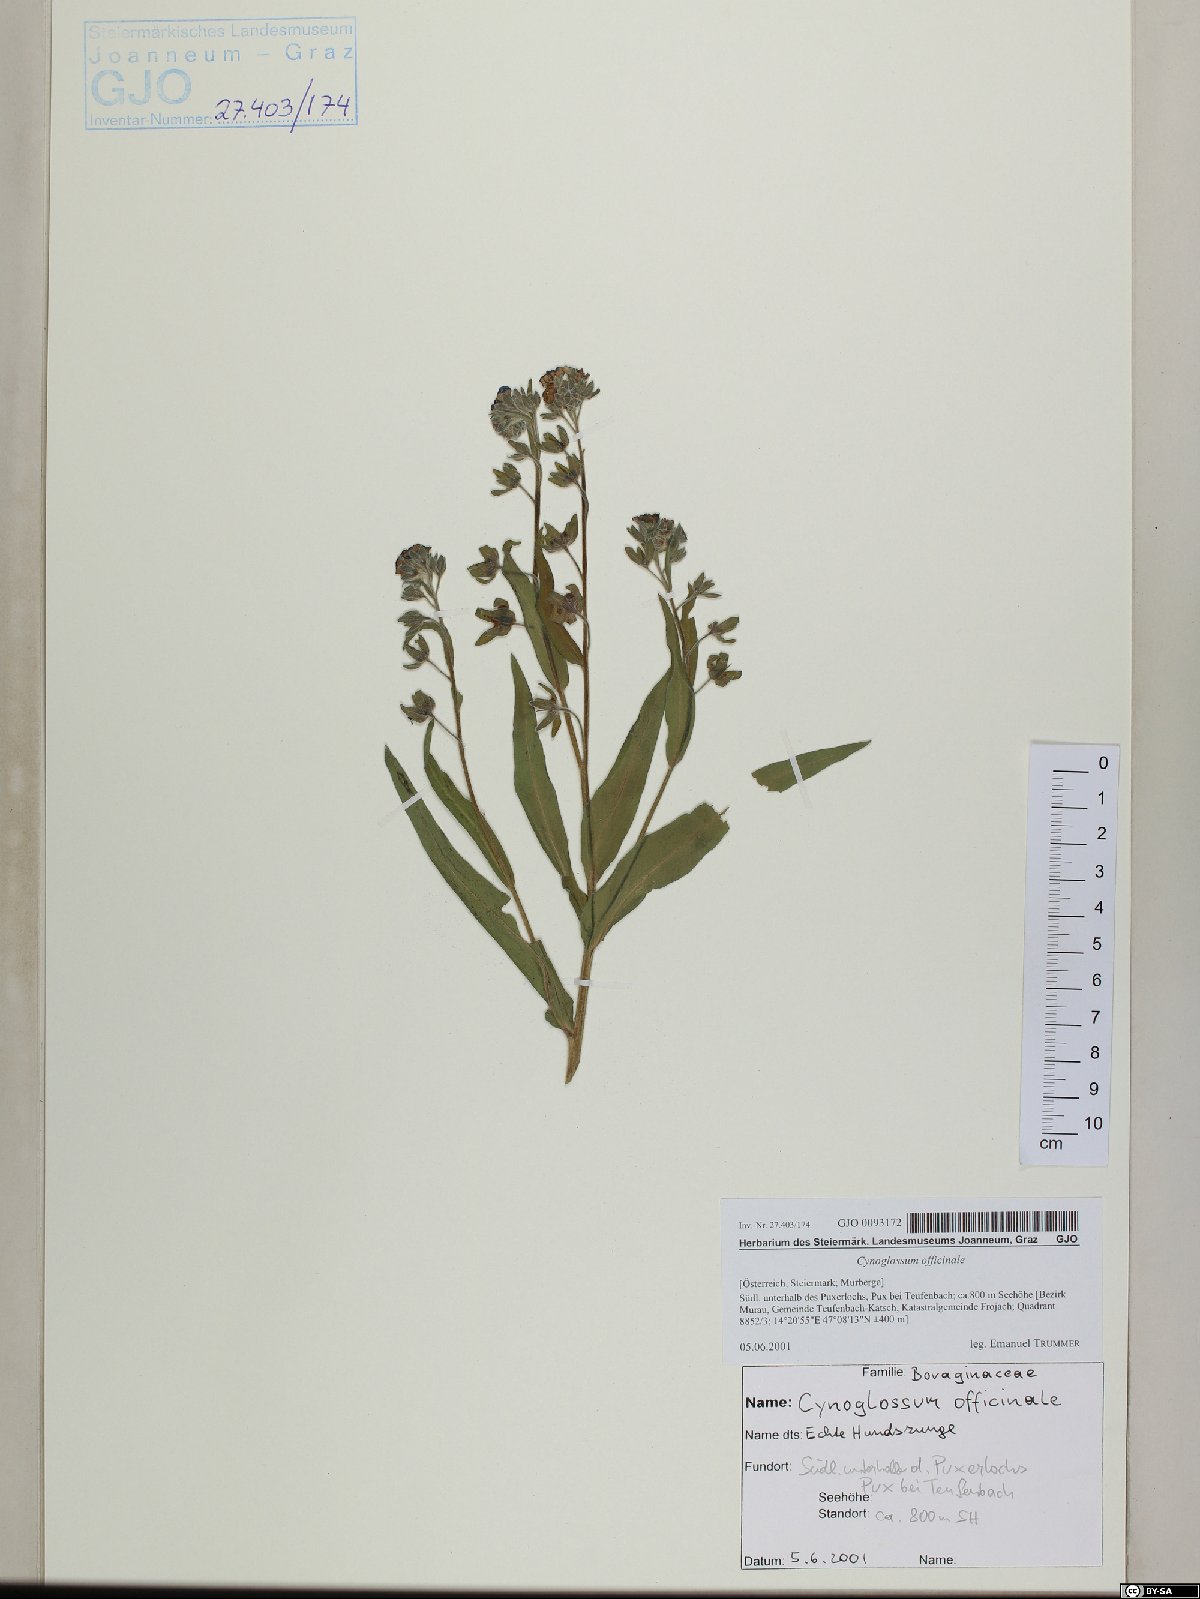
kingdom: Plantae
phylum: Tracheophyta
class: Magnoliopsida
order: Boraginales
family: Boraginaceae
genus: Cynoglossum
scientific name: Cynoglossum officinale
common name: Hound's-tongue
